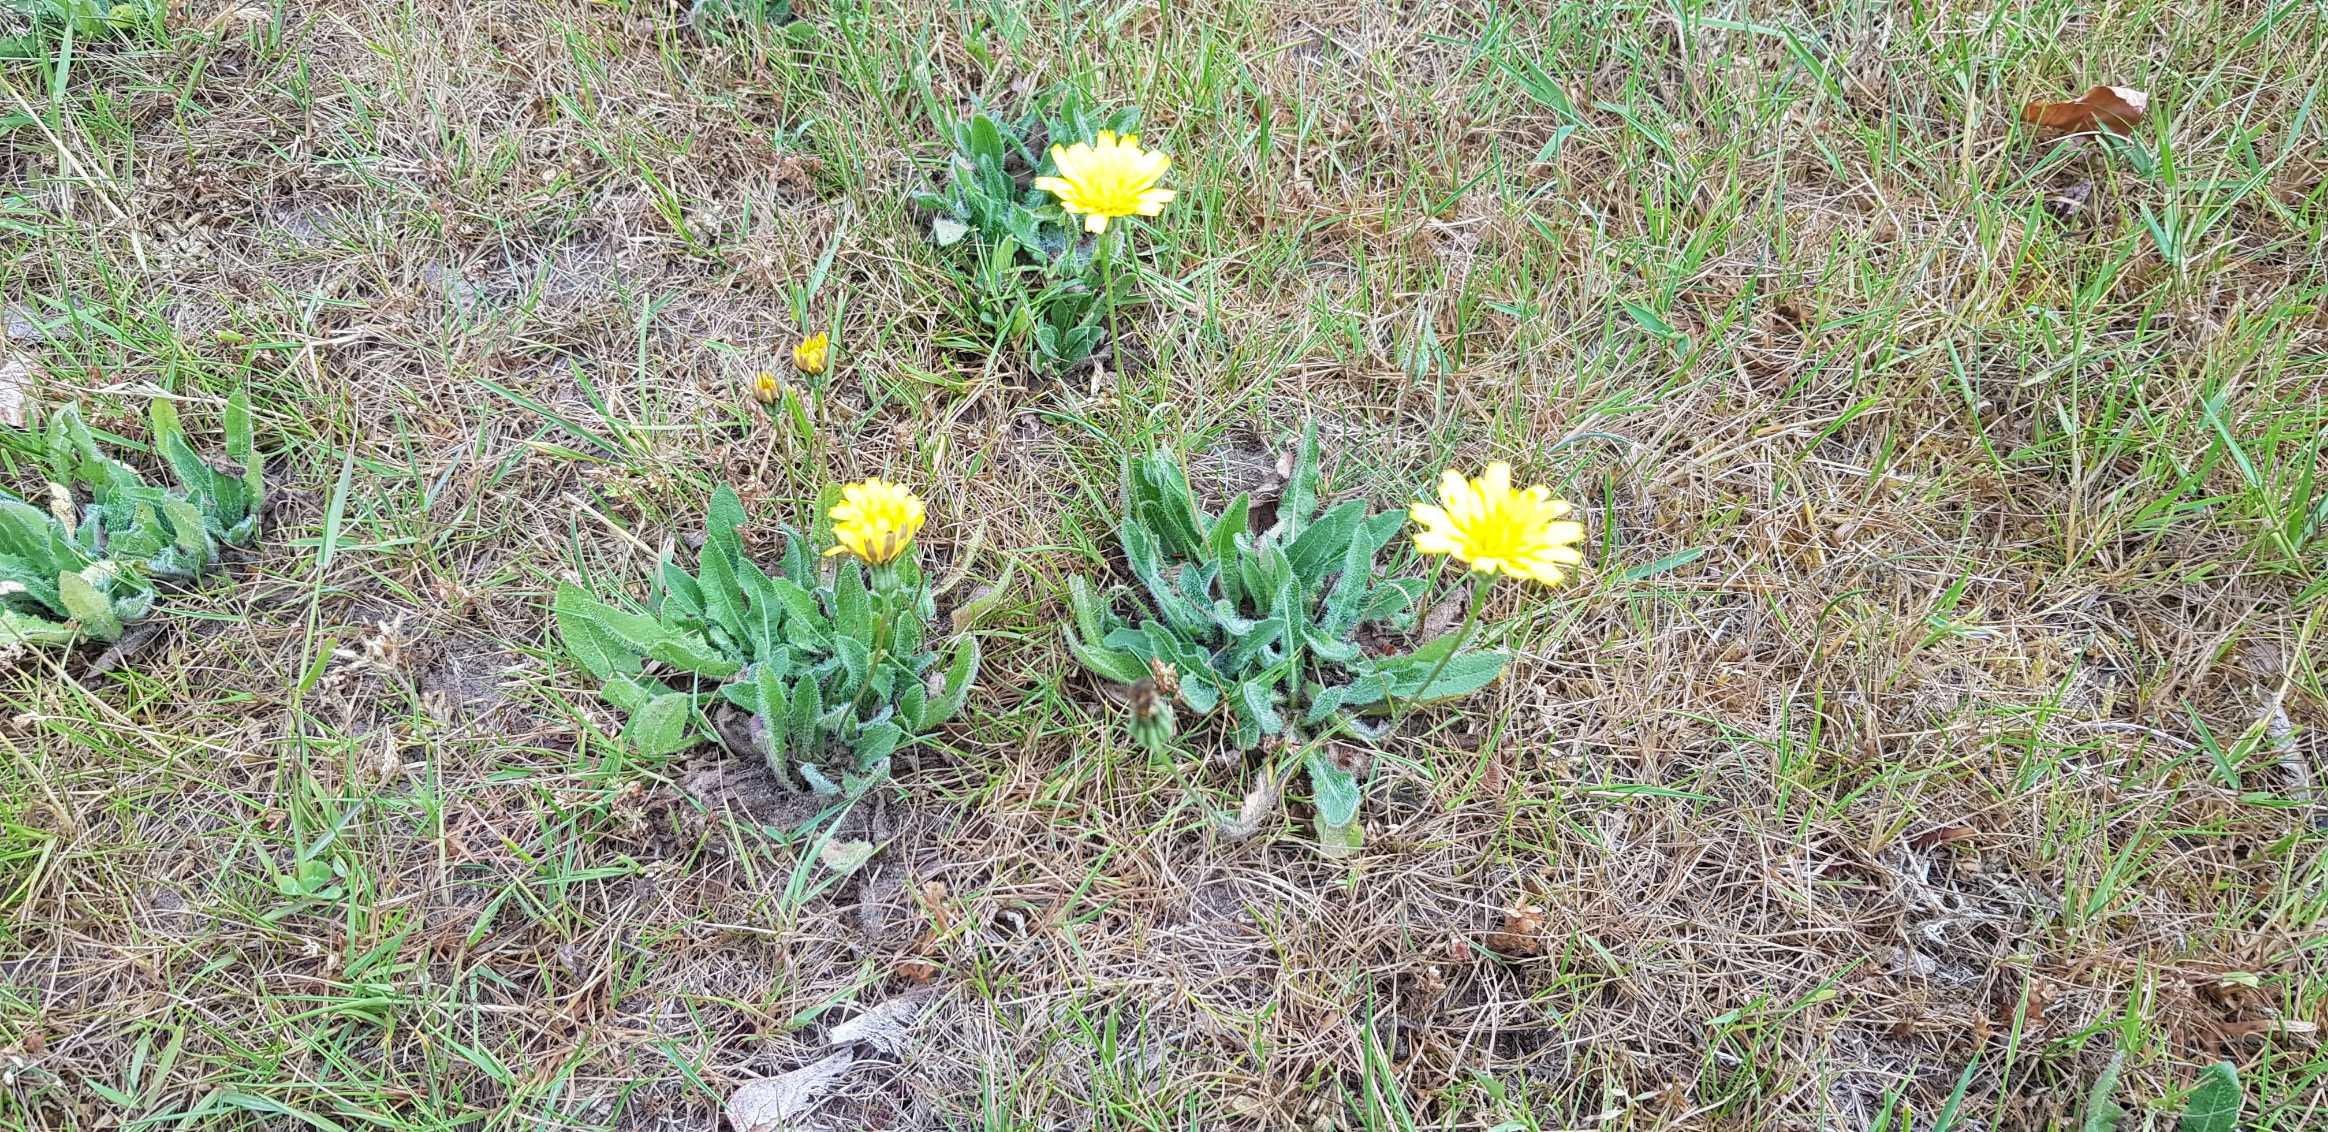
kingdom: Plantae
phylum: Tracheophyta
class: Magnoliopsida
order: Asterales
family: Asteraceae
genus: Thrincia
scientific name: Thrincia saxatilis
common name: Hundesalat
